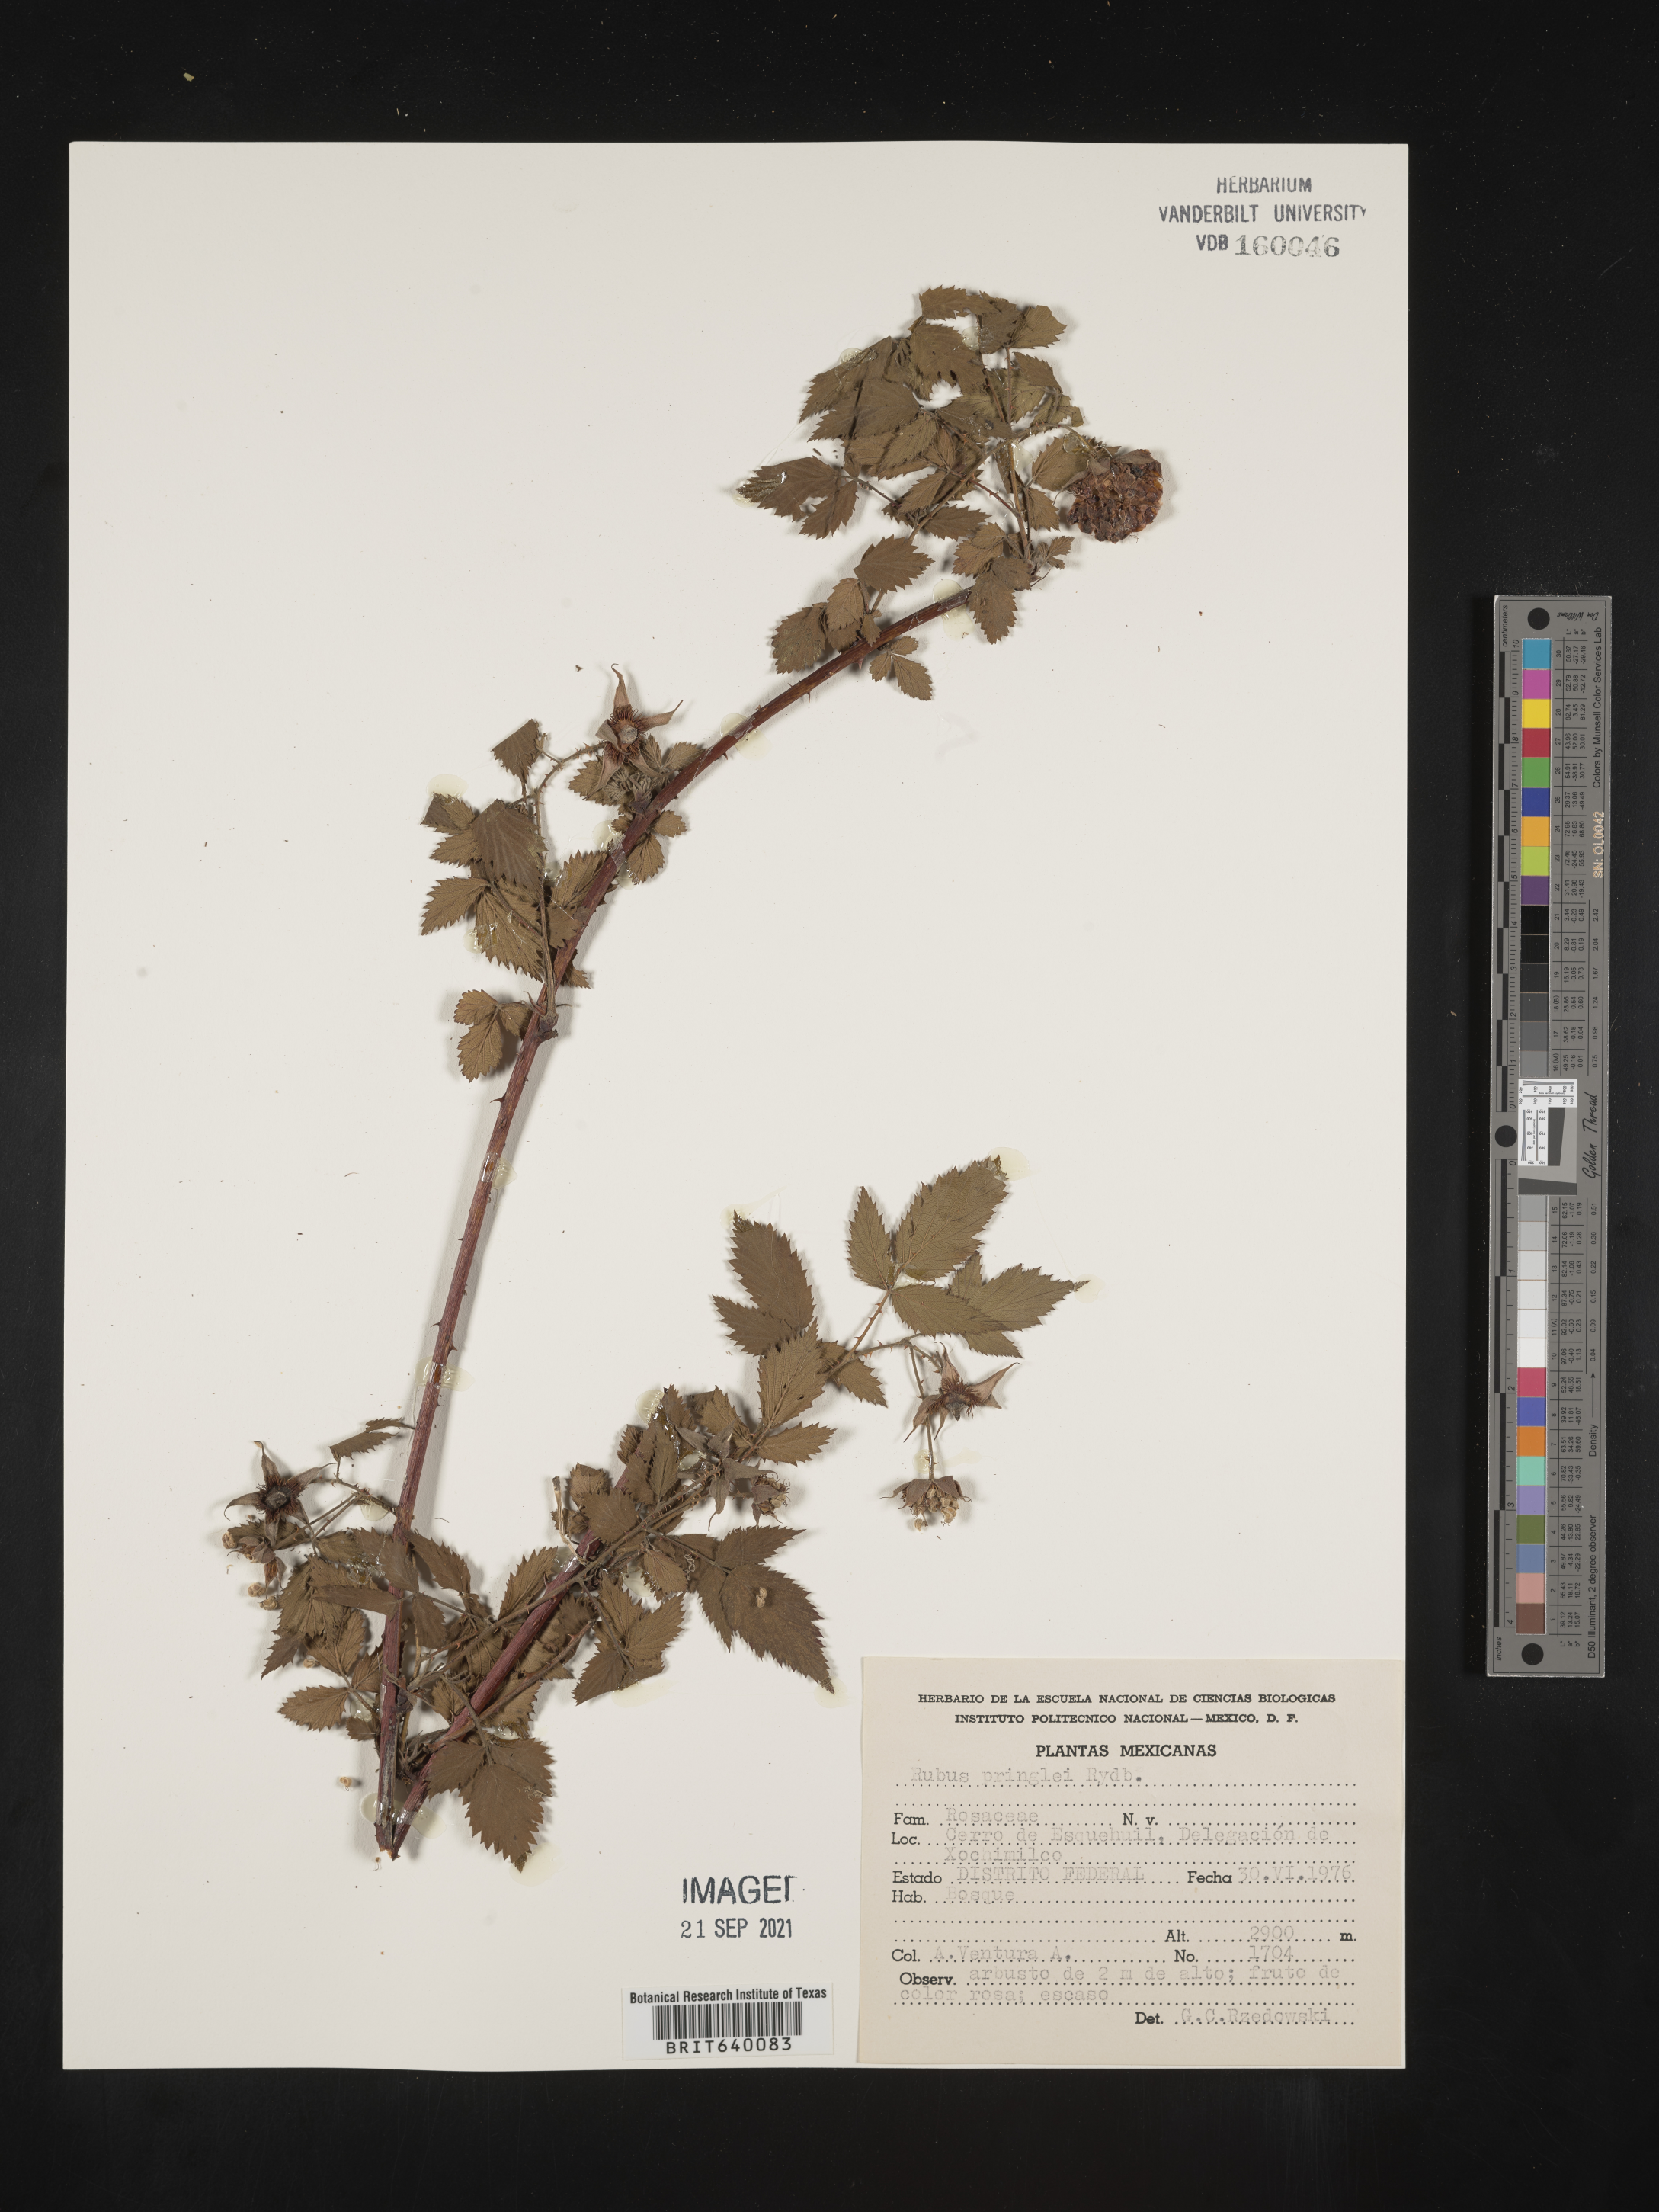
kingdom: Plantae
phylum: Tracheophyta
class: Magnoliopsida
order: Rosales
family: Rosaceae
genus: Rubus
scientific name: Rubus
